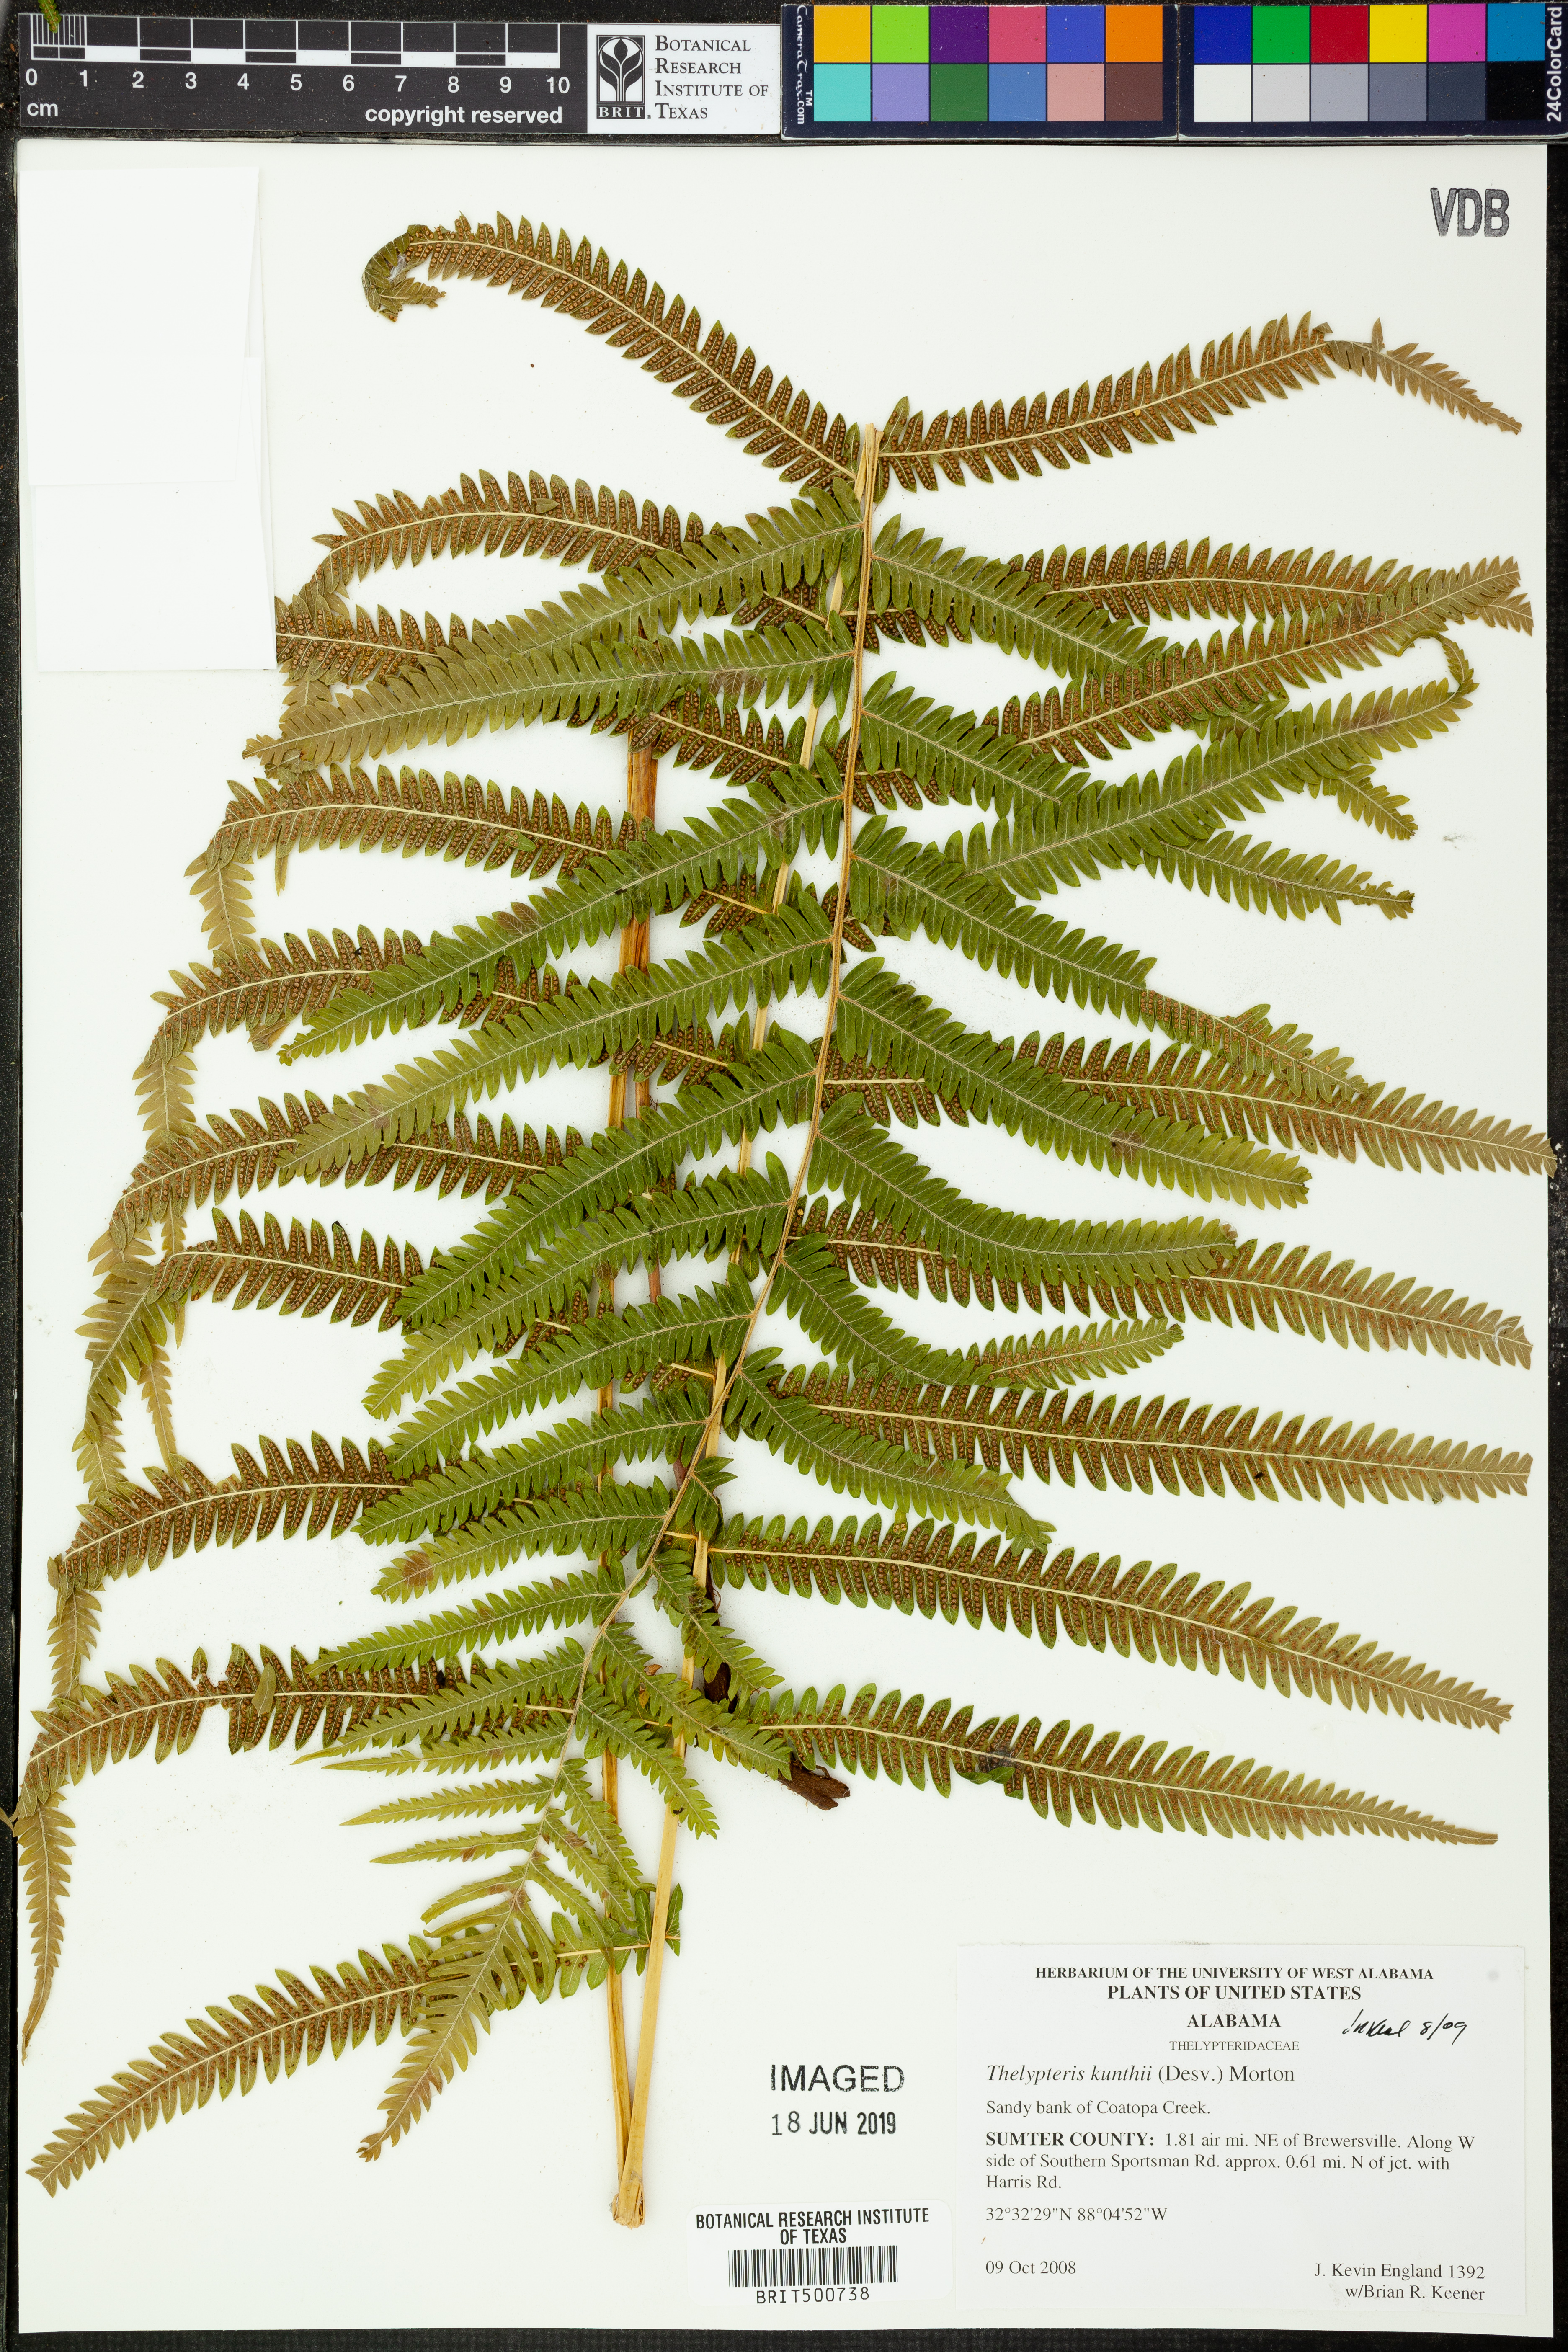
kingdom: Plantae
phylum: Tracheophyta
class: Polypodiopsida
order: Polypodiales
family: Thelypteridaceae
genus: Pelazoneuron
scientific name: Pelazoneuron kunthii
